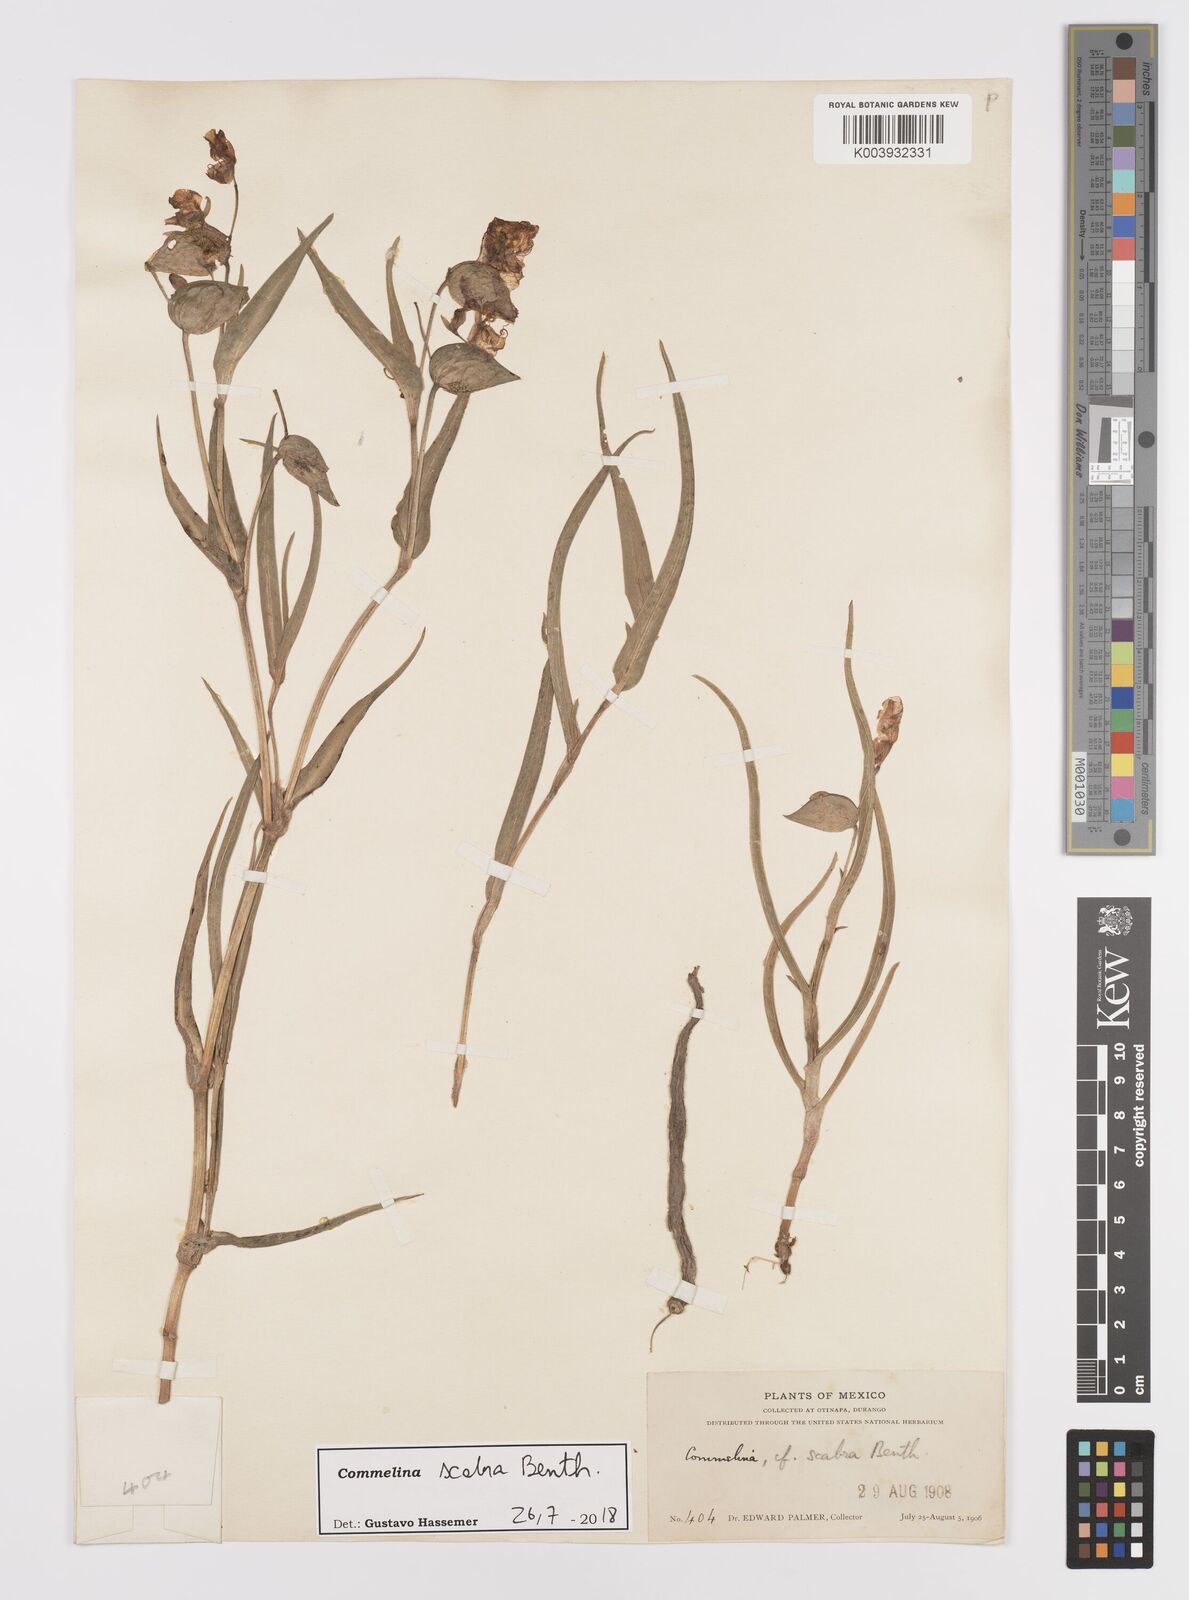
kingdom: Plantae
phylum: Tracheophyta
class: Liliopsida
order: Commelinales
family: Commelinaceae
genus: Commelina
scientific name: Commelina scabra
